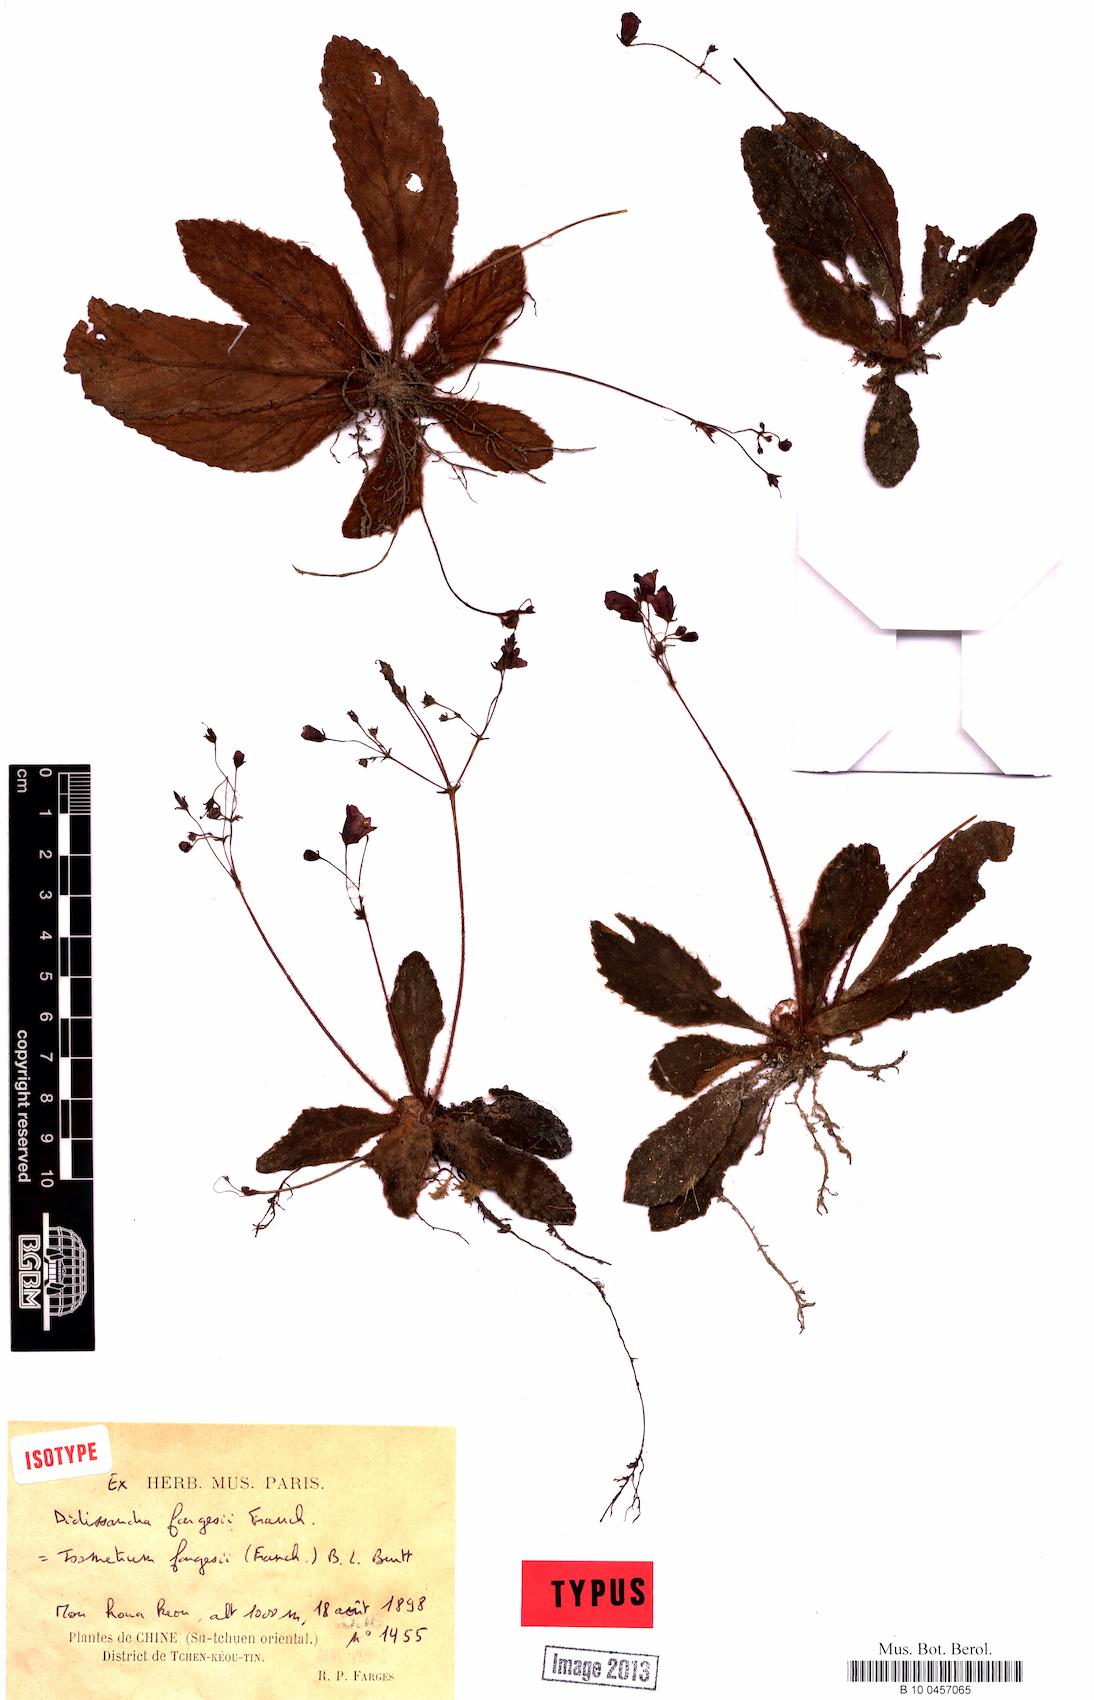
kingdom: Plantae
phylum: Tracheophyta
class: Magnoliopsida
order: Lamiales
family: Gesneriaceae
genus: Oreocharis
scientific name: Oreocharis fargesii
